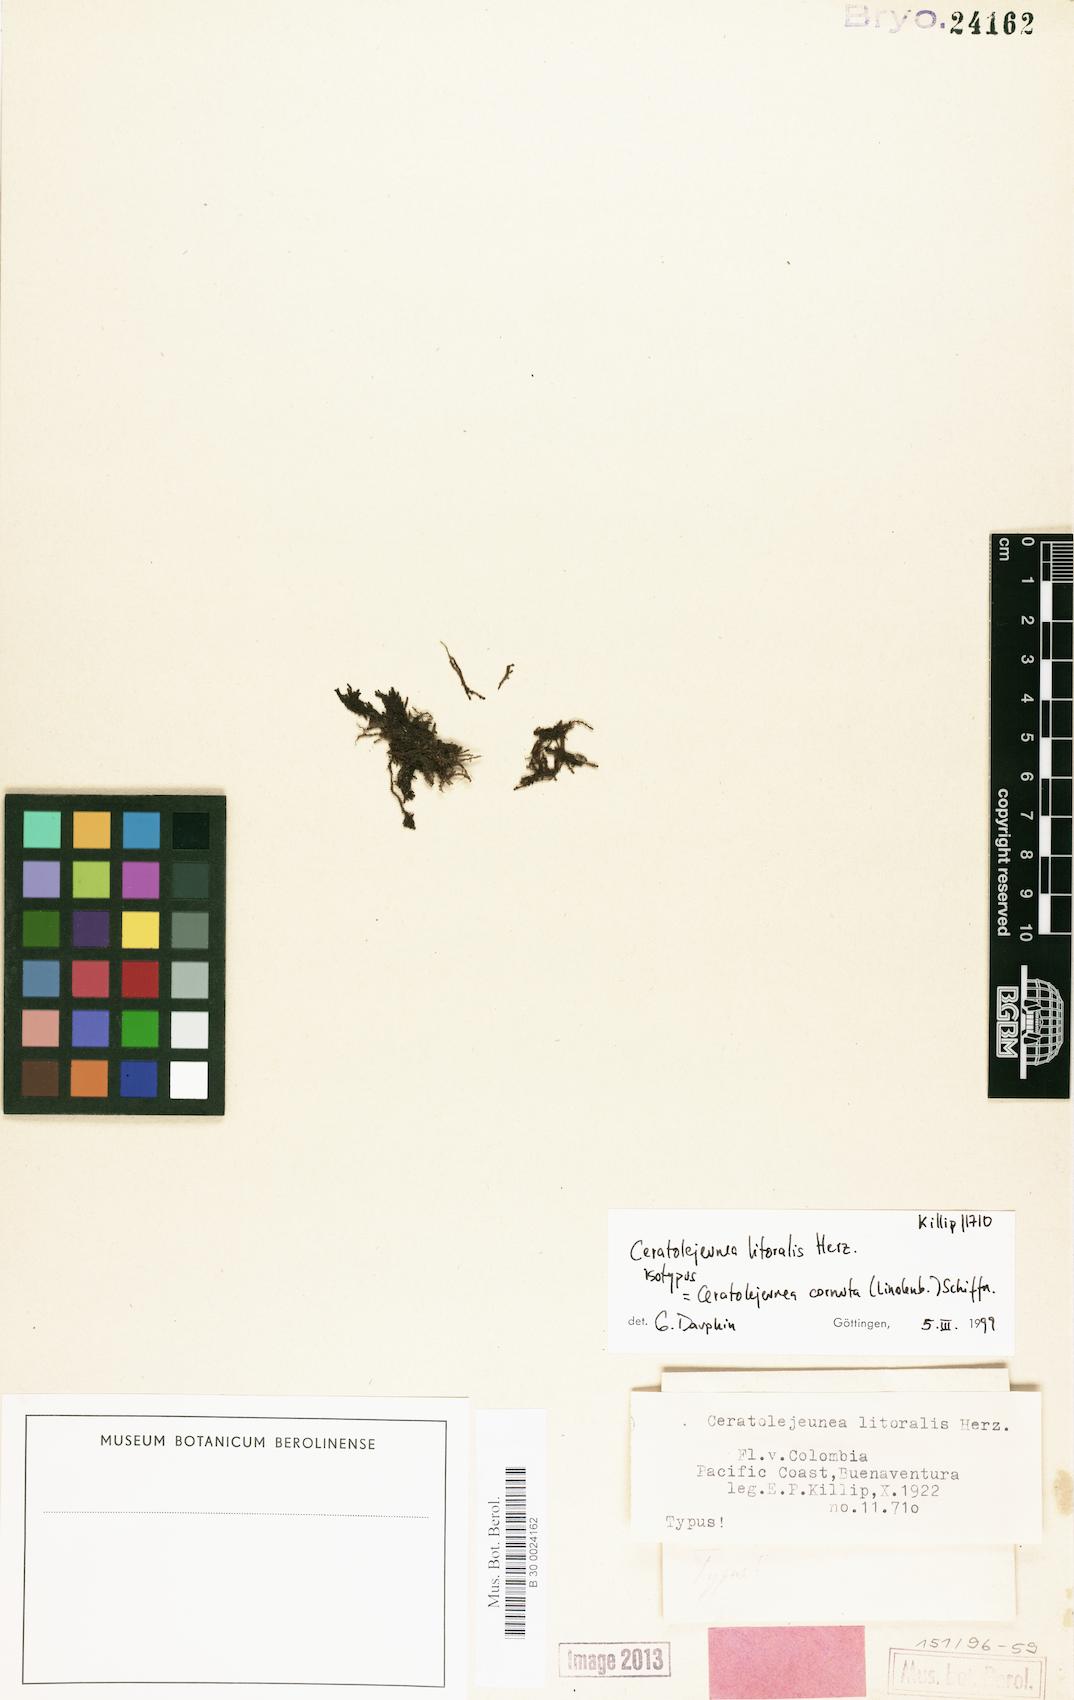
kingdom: Plantae
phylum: Marchantiophyta
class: Jungermanniopsida
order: Porellales
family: Lejeuneaceae
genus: Ceratolejeunea
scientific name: Ceratolejeunea cornuta
